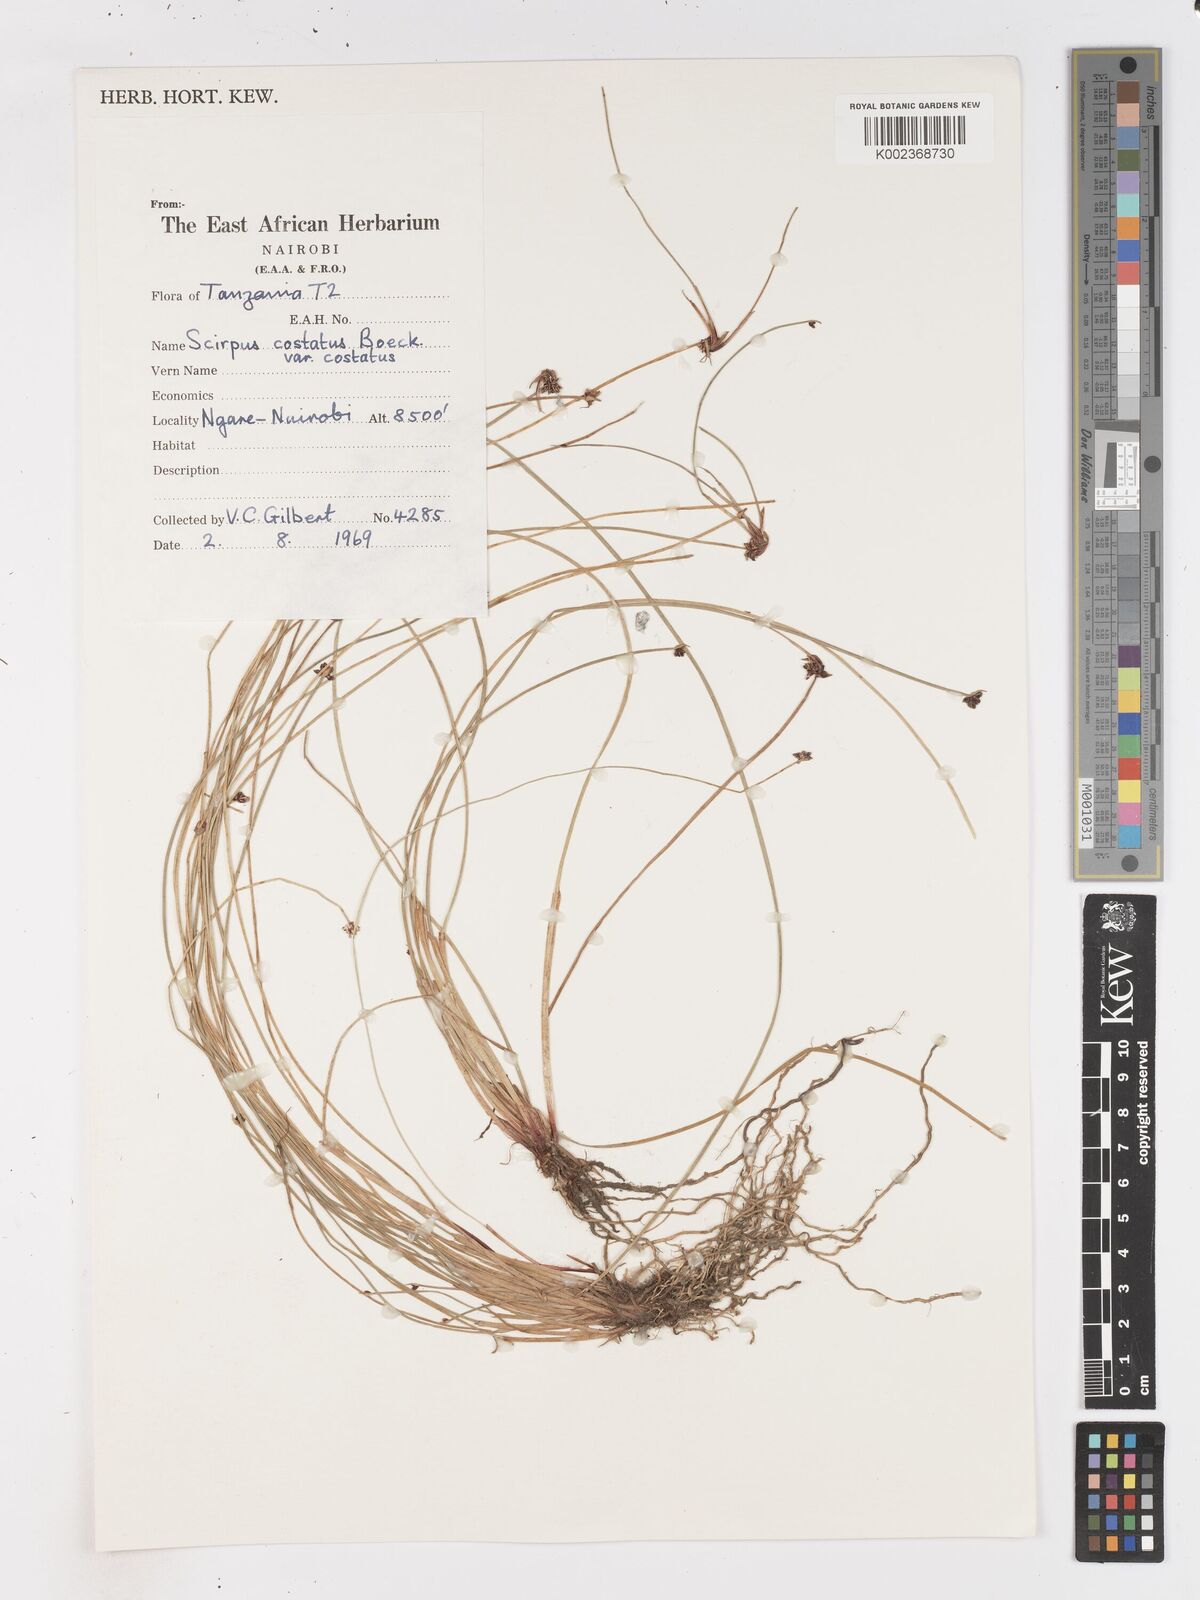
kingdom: Plantae
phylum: Tracheophyta
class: Liliopsida
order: Poales
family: Cyperaceae
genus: Isolepis
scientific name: Isolepis costata
